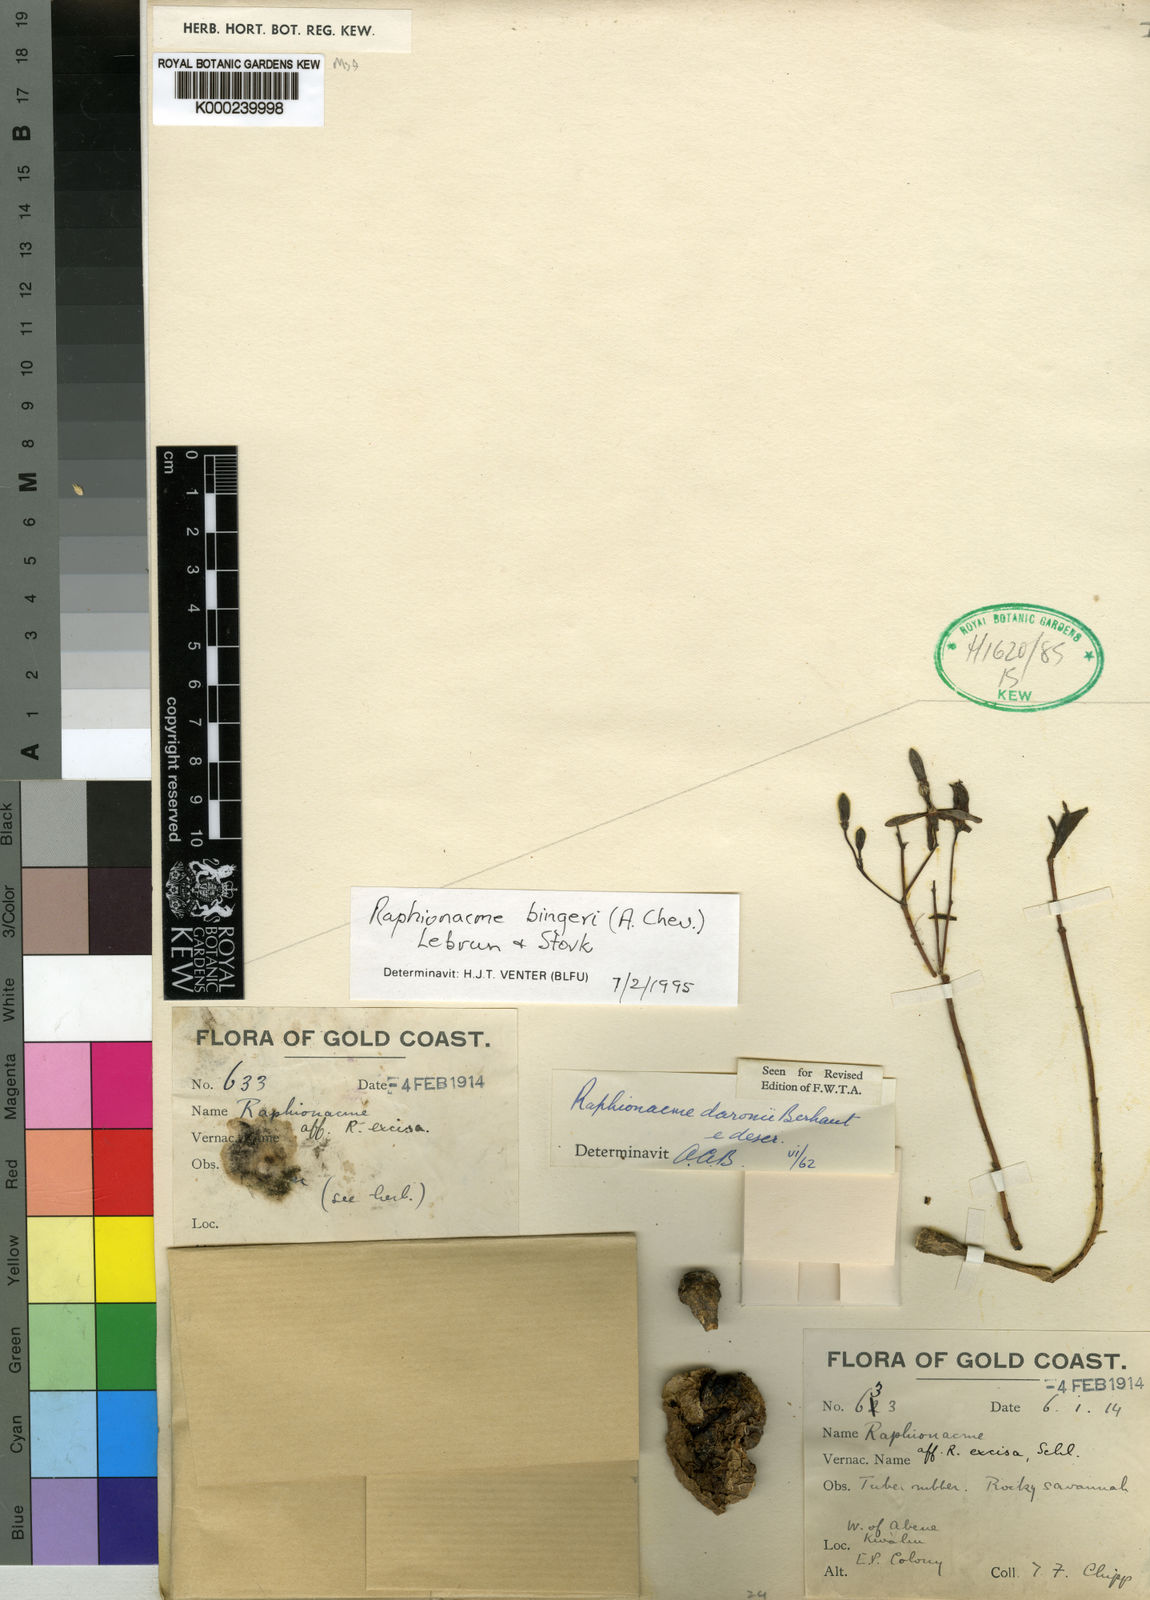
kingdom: Plantae
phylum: Tracheophyta
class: Magnoliopsida
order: Gentianales
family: Apocynaceae
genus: Raphionacme
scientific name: Raphionacme splendens
